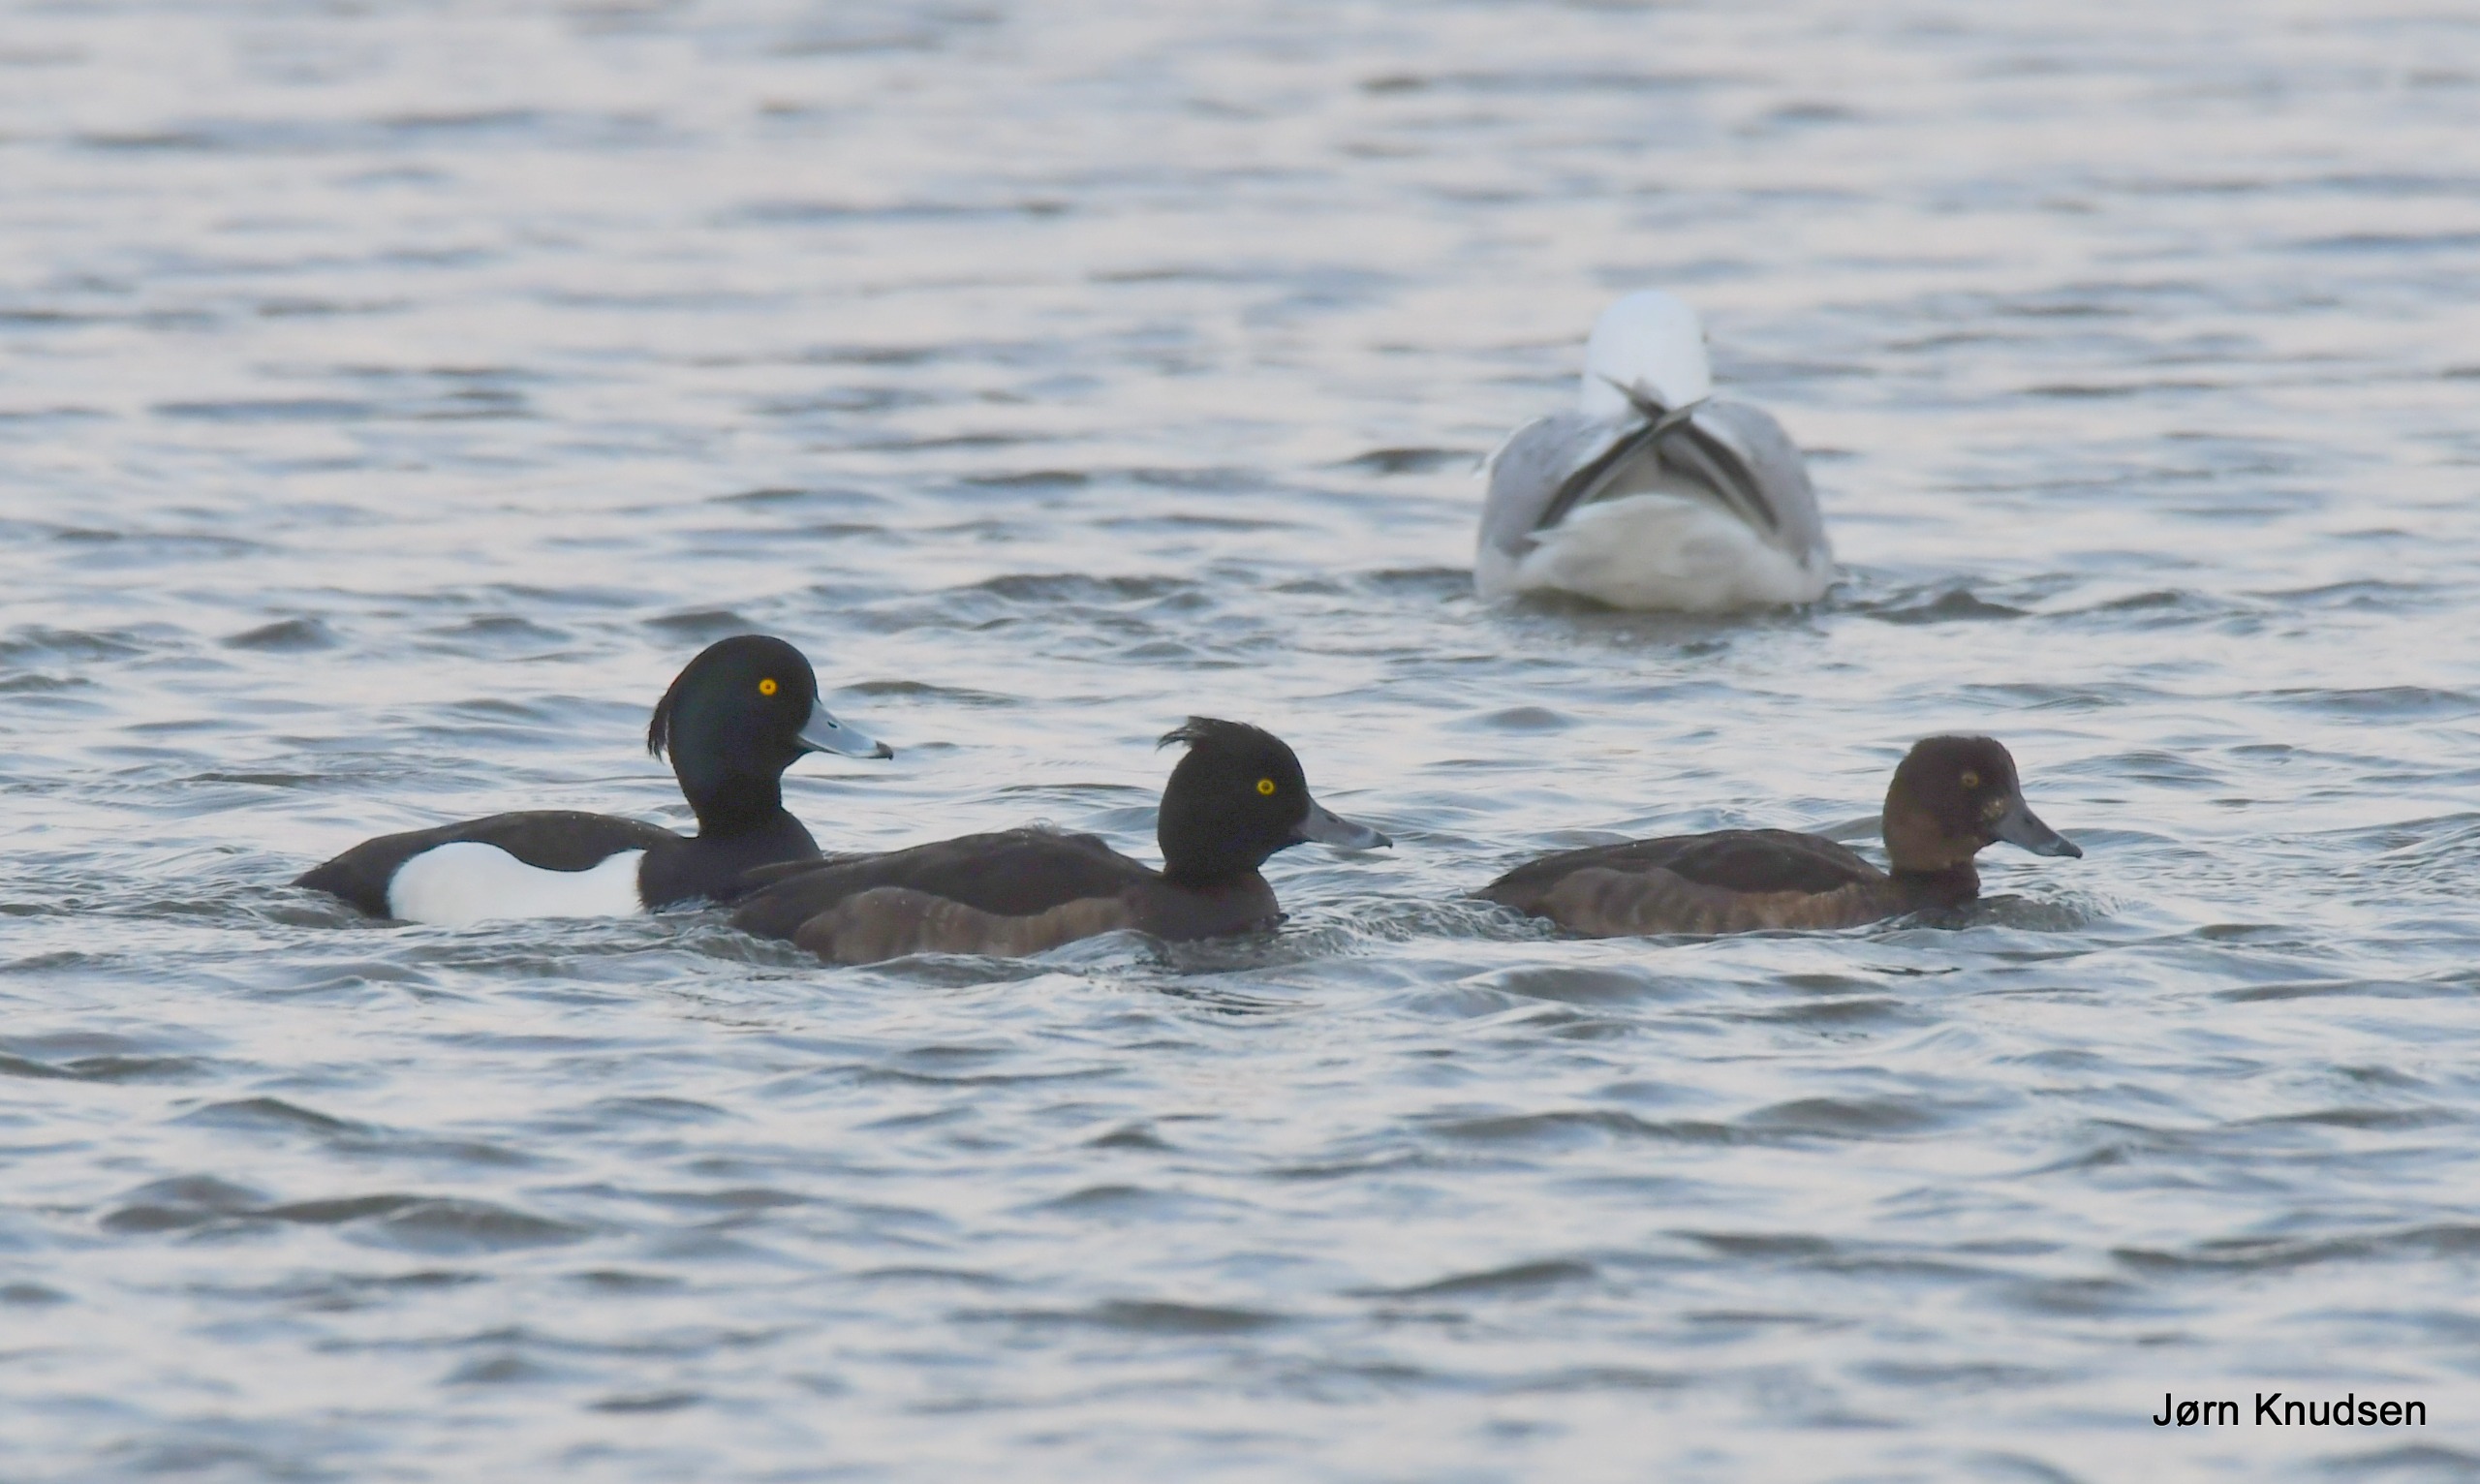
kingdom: Animalia
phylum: Chordata
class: Aves
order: Anseriformes
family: Anatidae
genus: Aythya
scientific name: Aythya fuligula
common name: Troldand
